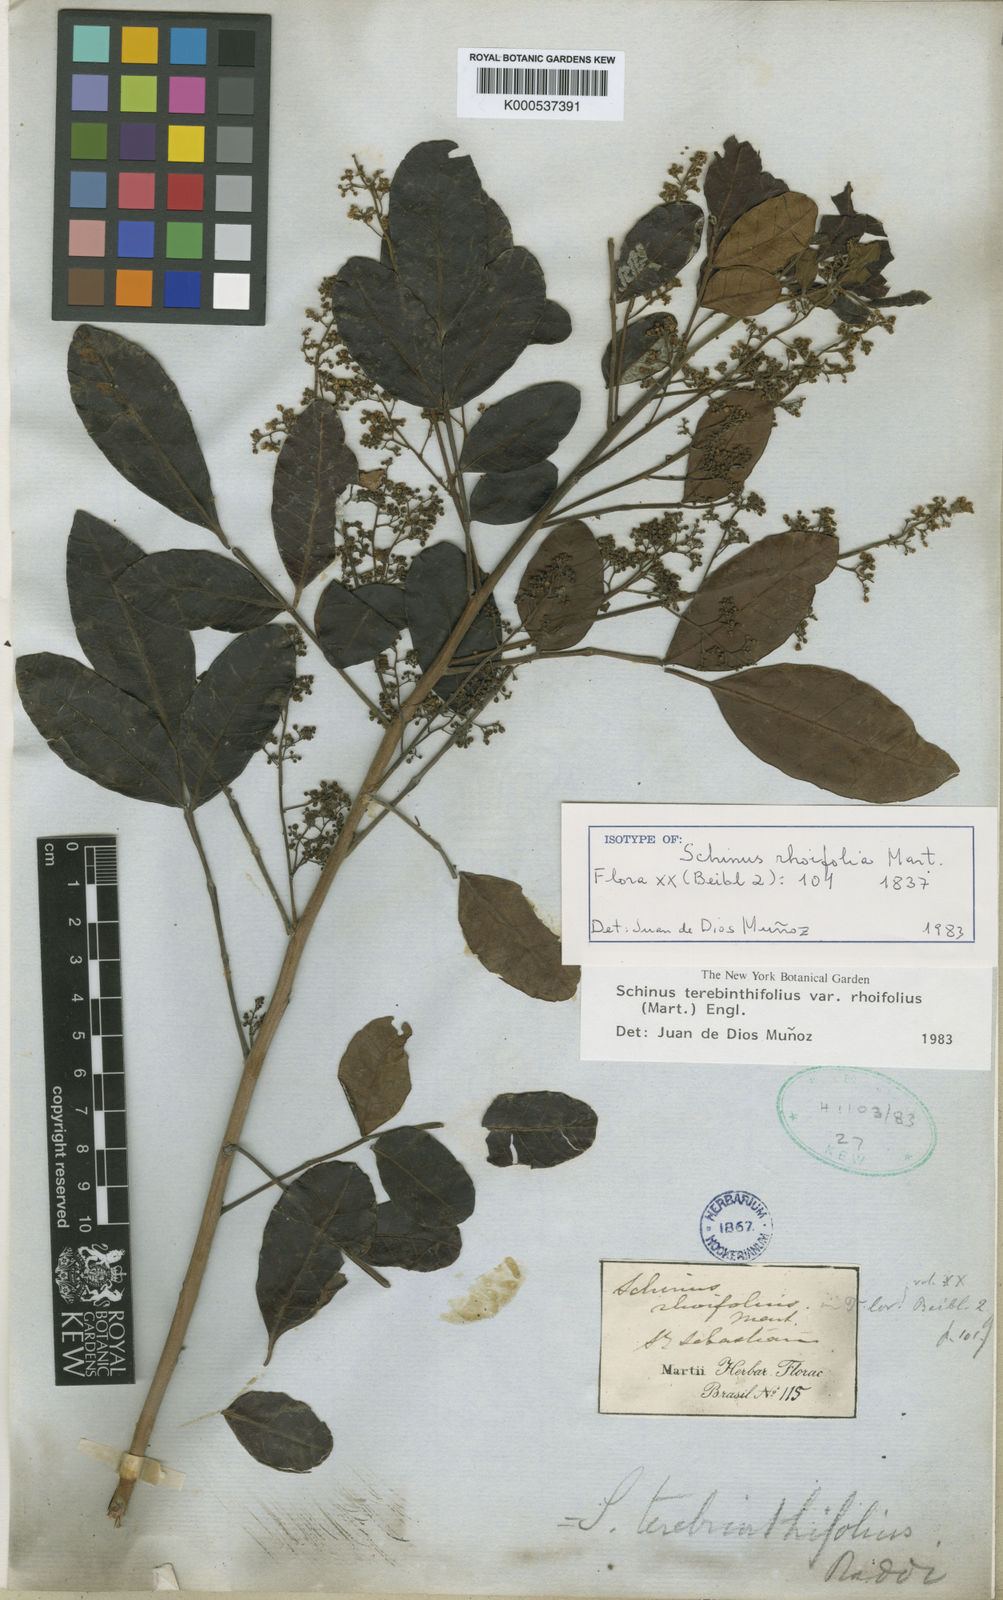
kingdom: Plantae
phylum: Tracheophyta
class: Magnoliopsida
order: Sapindales
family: Anacardiaceae
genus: Schinus
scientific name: Schinus terebinthifolia
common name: Brazilian peppertree
